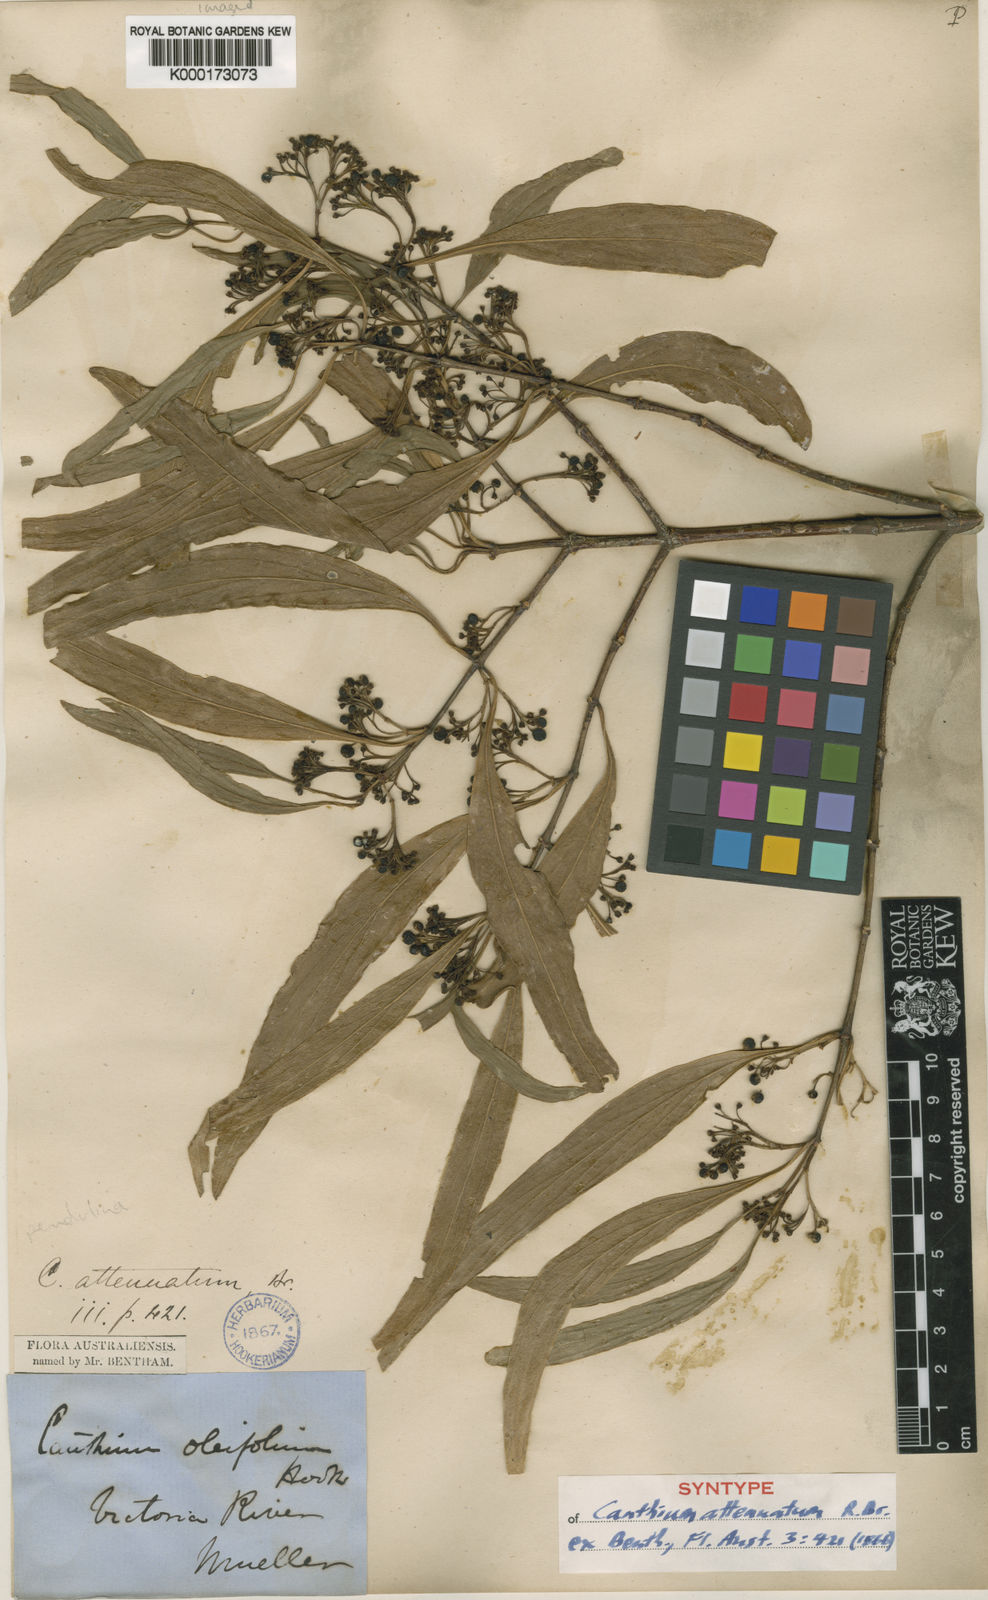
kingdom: Plantae
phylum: Tracheophyta
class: Magnoliopsida
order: Gentianales
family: Rubiaceae
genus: Psydrax
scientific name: Psydrax pendulinus
